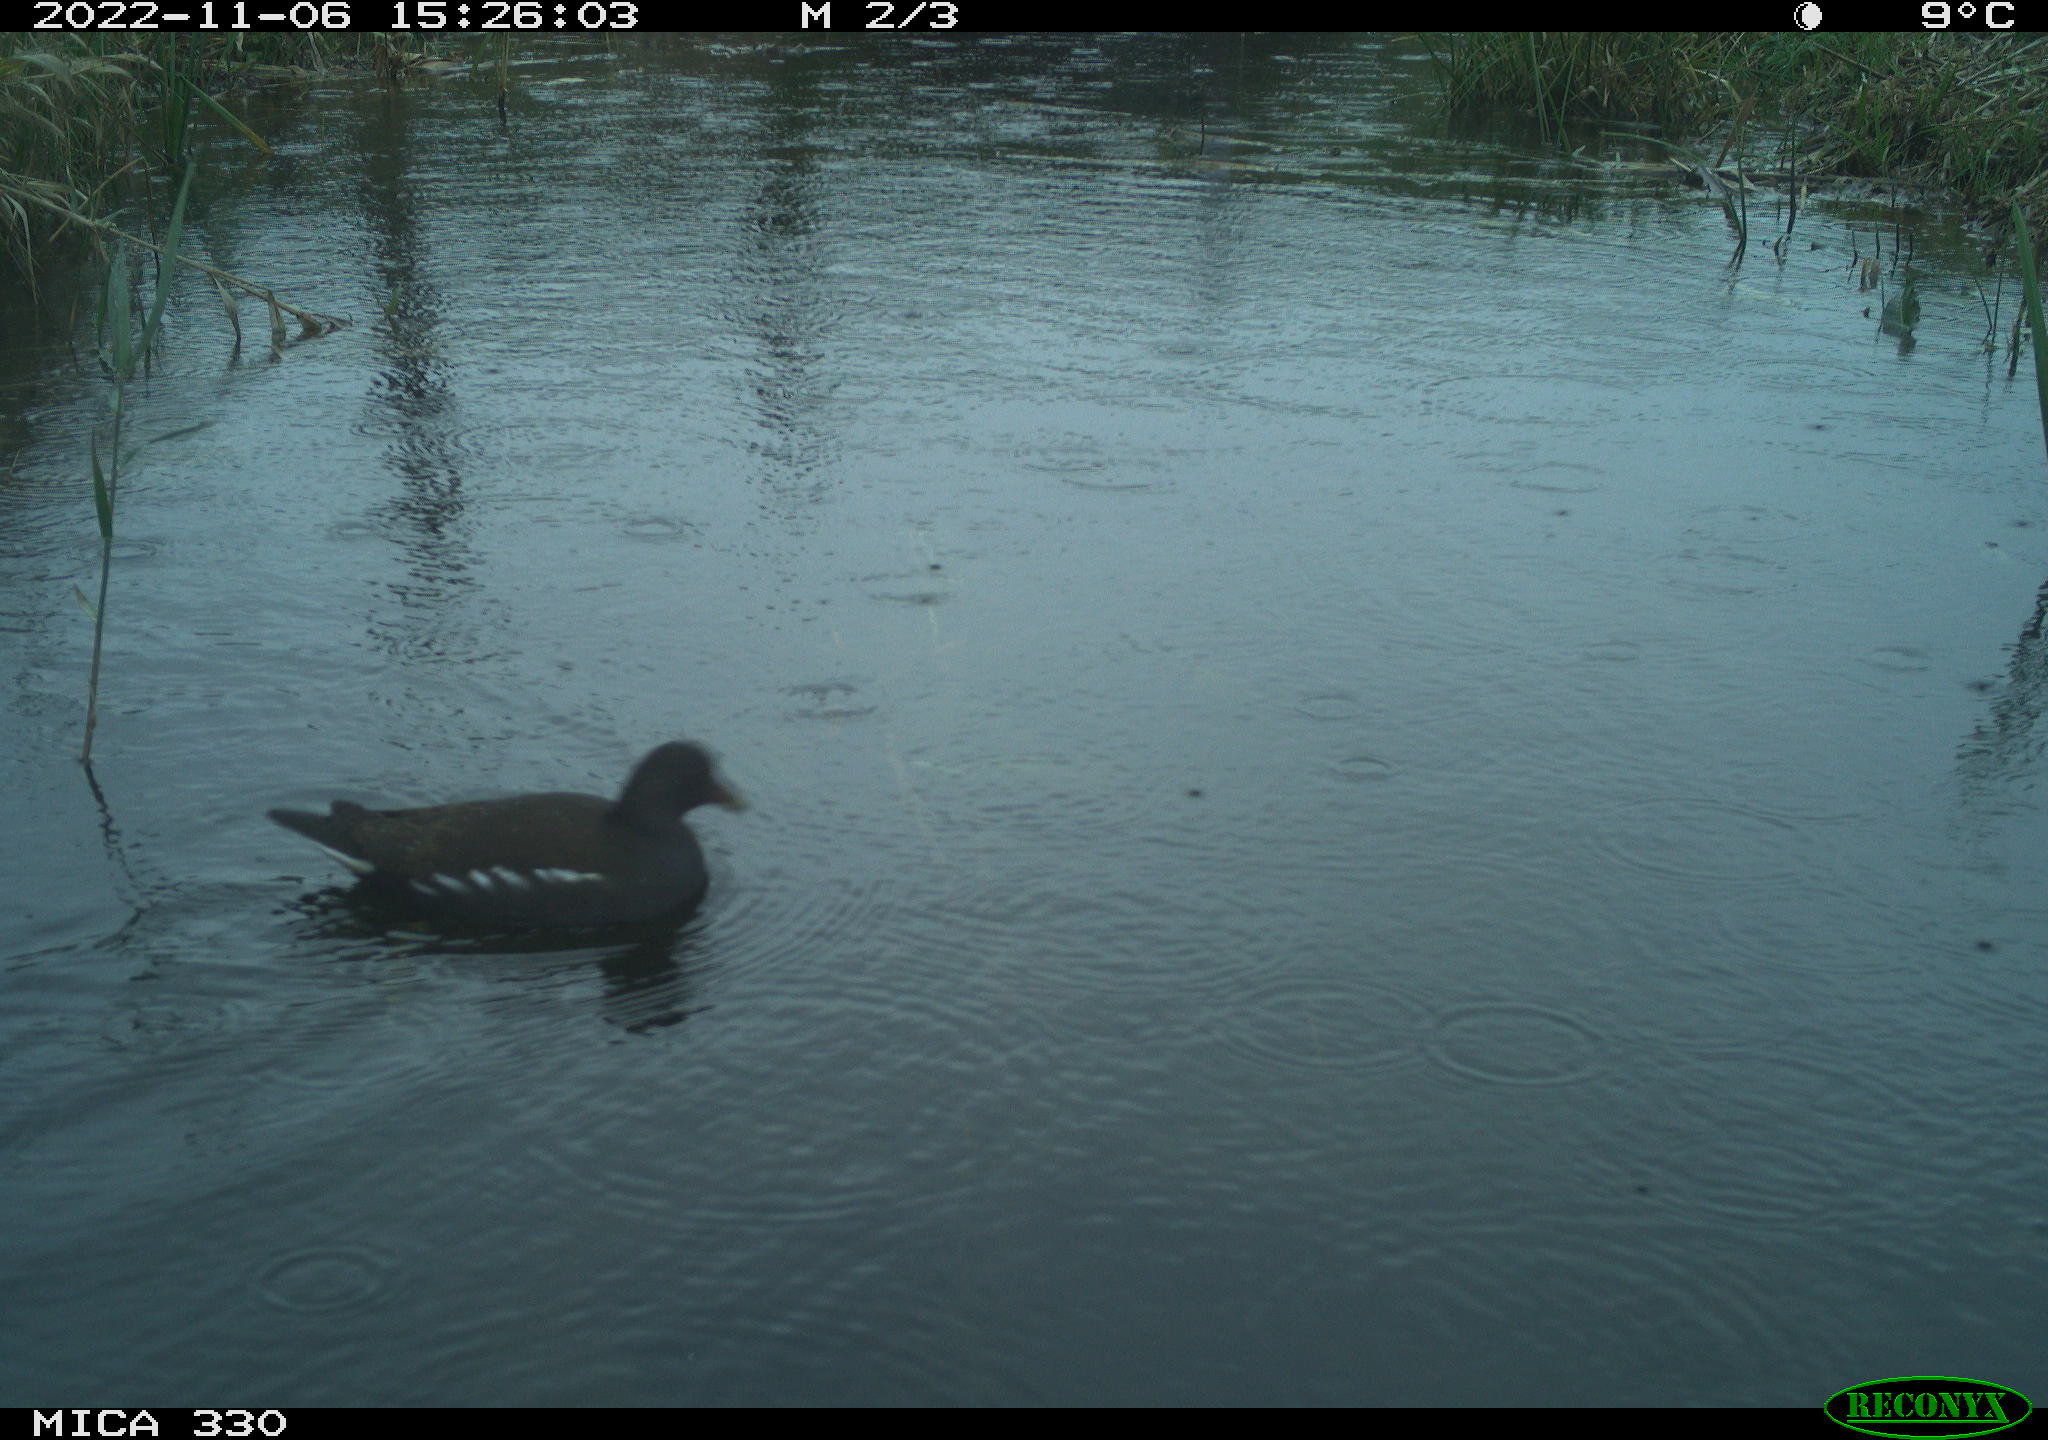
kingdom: Animalia
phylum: Chordata
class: Aves
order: Gruiformes
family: Rallidae
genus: Gallinula
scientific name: Gallinula chloropus
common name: Common moorhen
